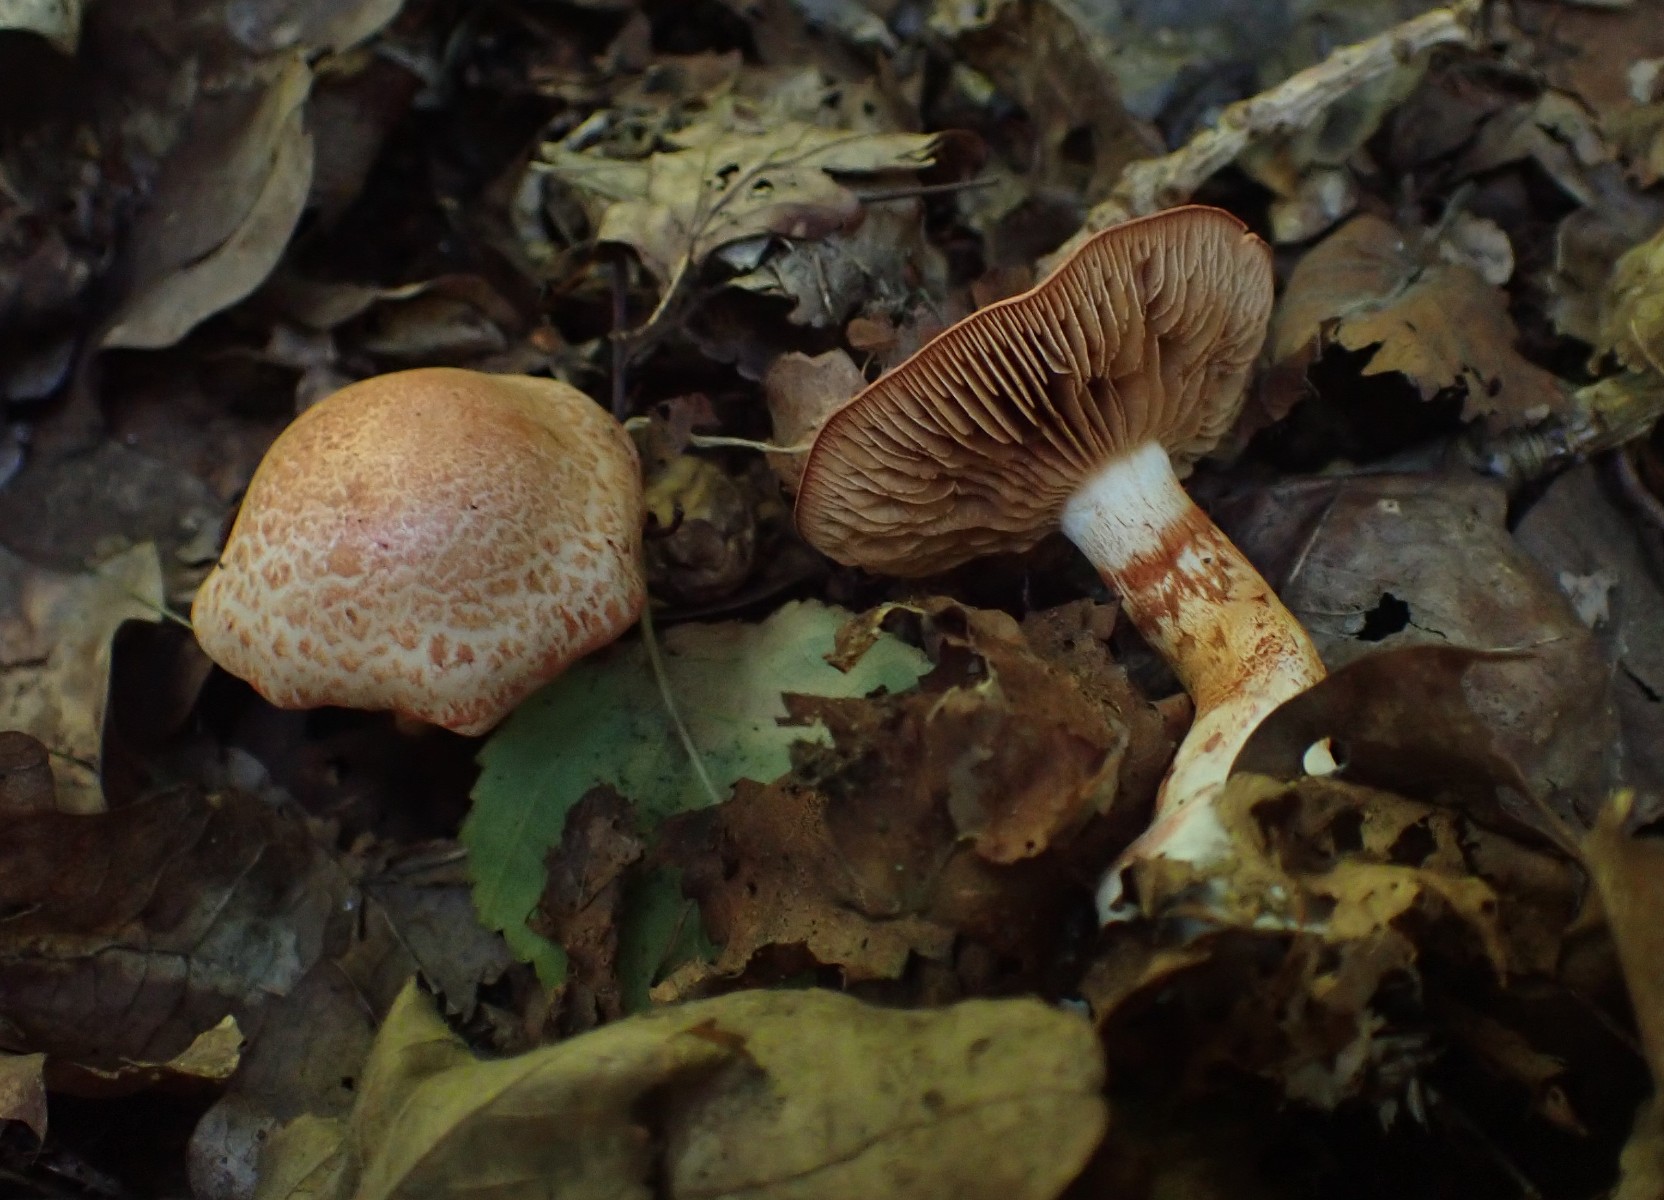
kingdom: Fungi
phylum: Basidiomycota
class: Agaricomycetes
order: Agaricales
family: Cortinariaceae
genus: Cortinarius
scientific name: Cortinarius bolaris
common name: cinnoberskællet slørhat
